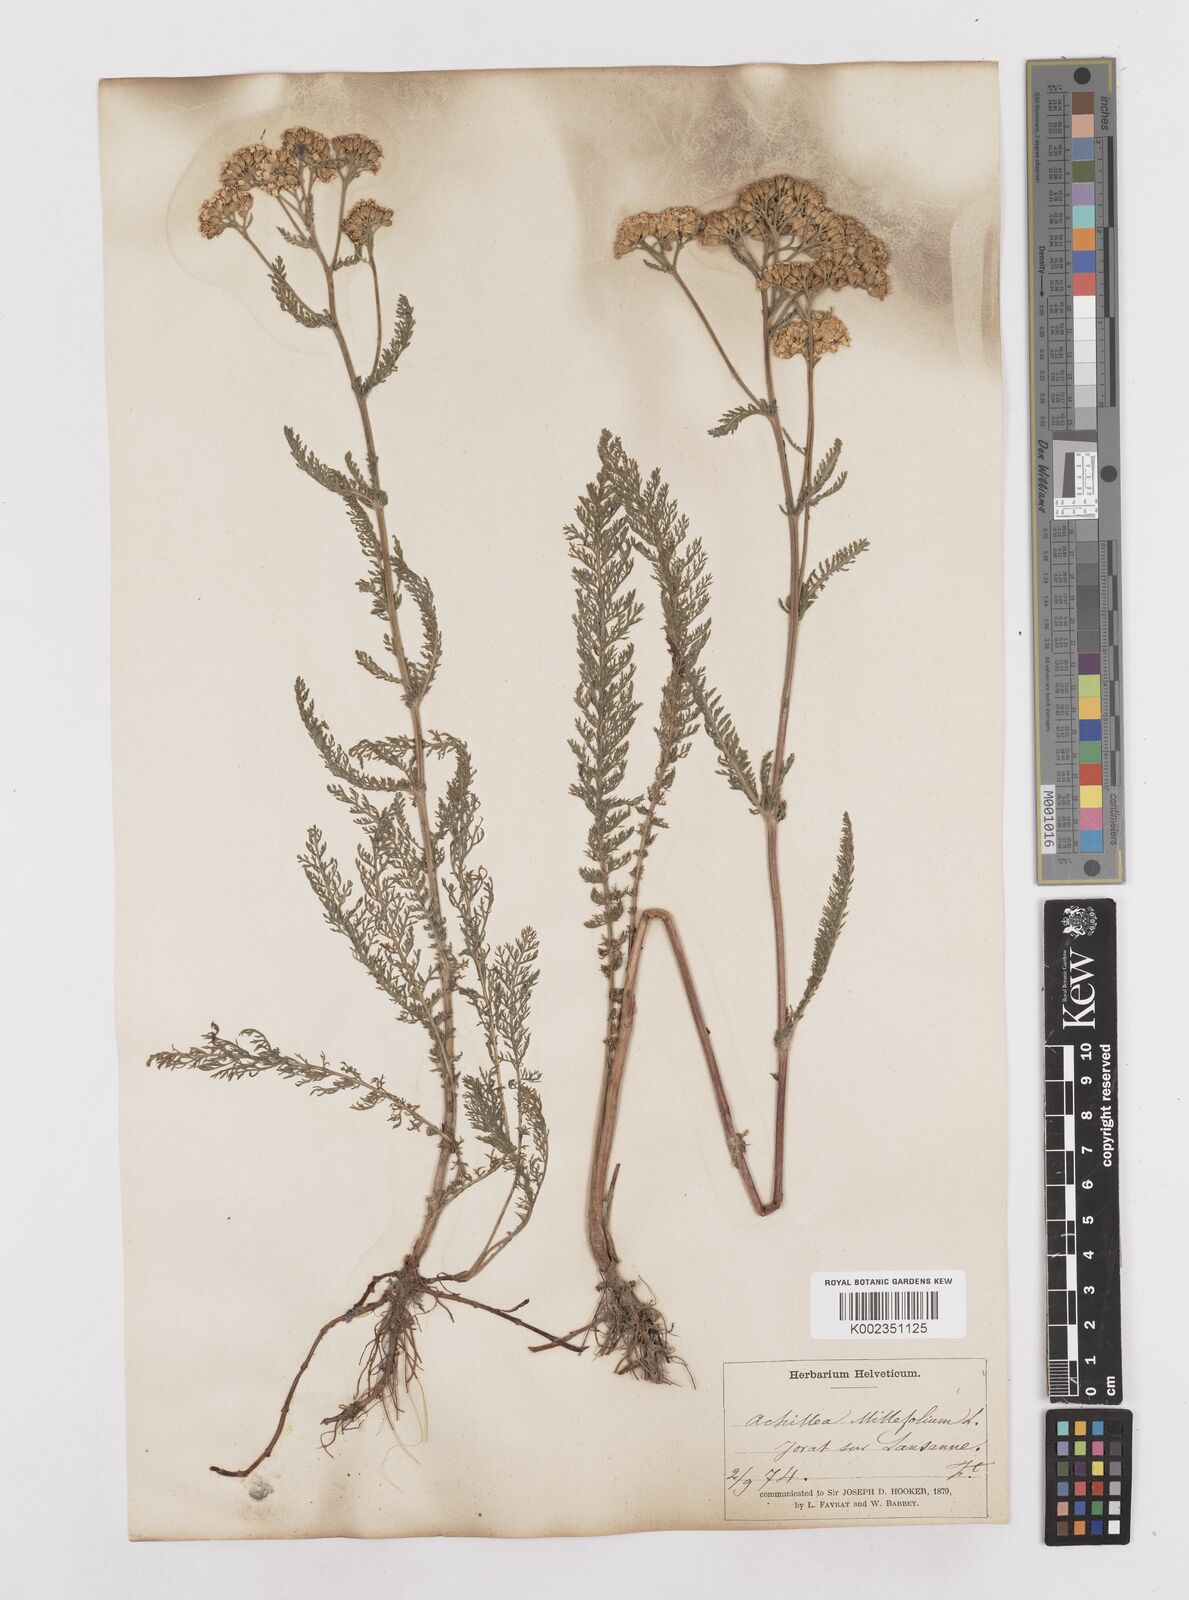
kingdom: Plantae
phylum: Tracheophyta
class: Magnoliopsida
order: Asterales
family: Asteraceae
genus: Achillea
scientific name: Achillea millefolium
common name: Yarrow
